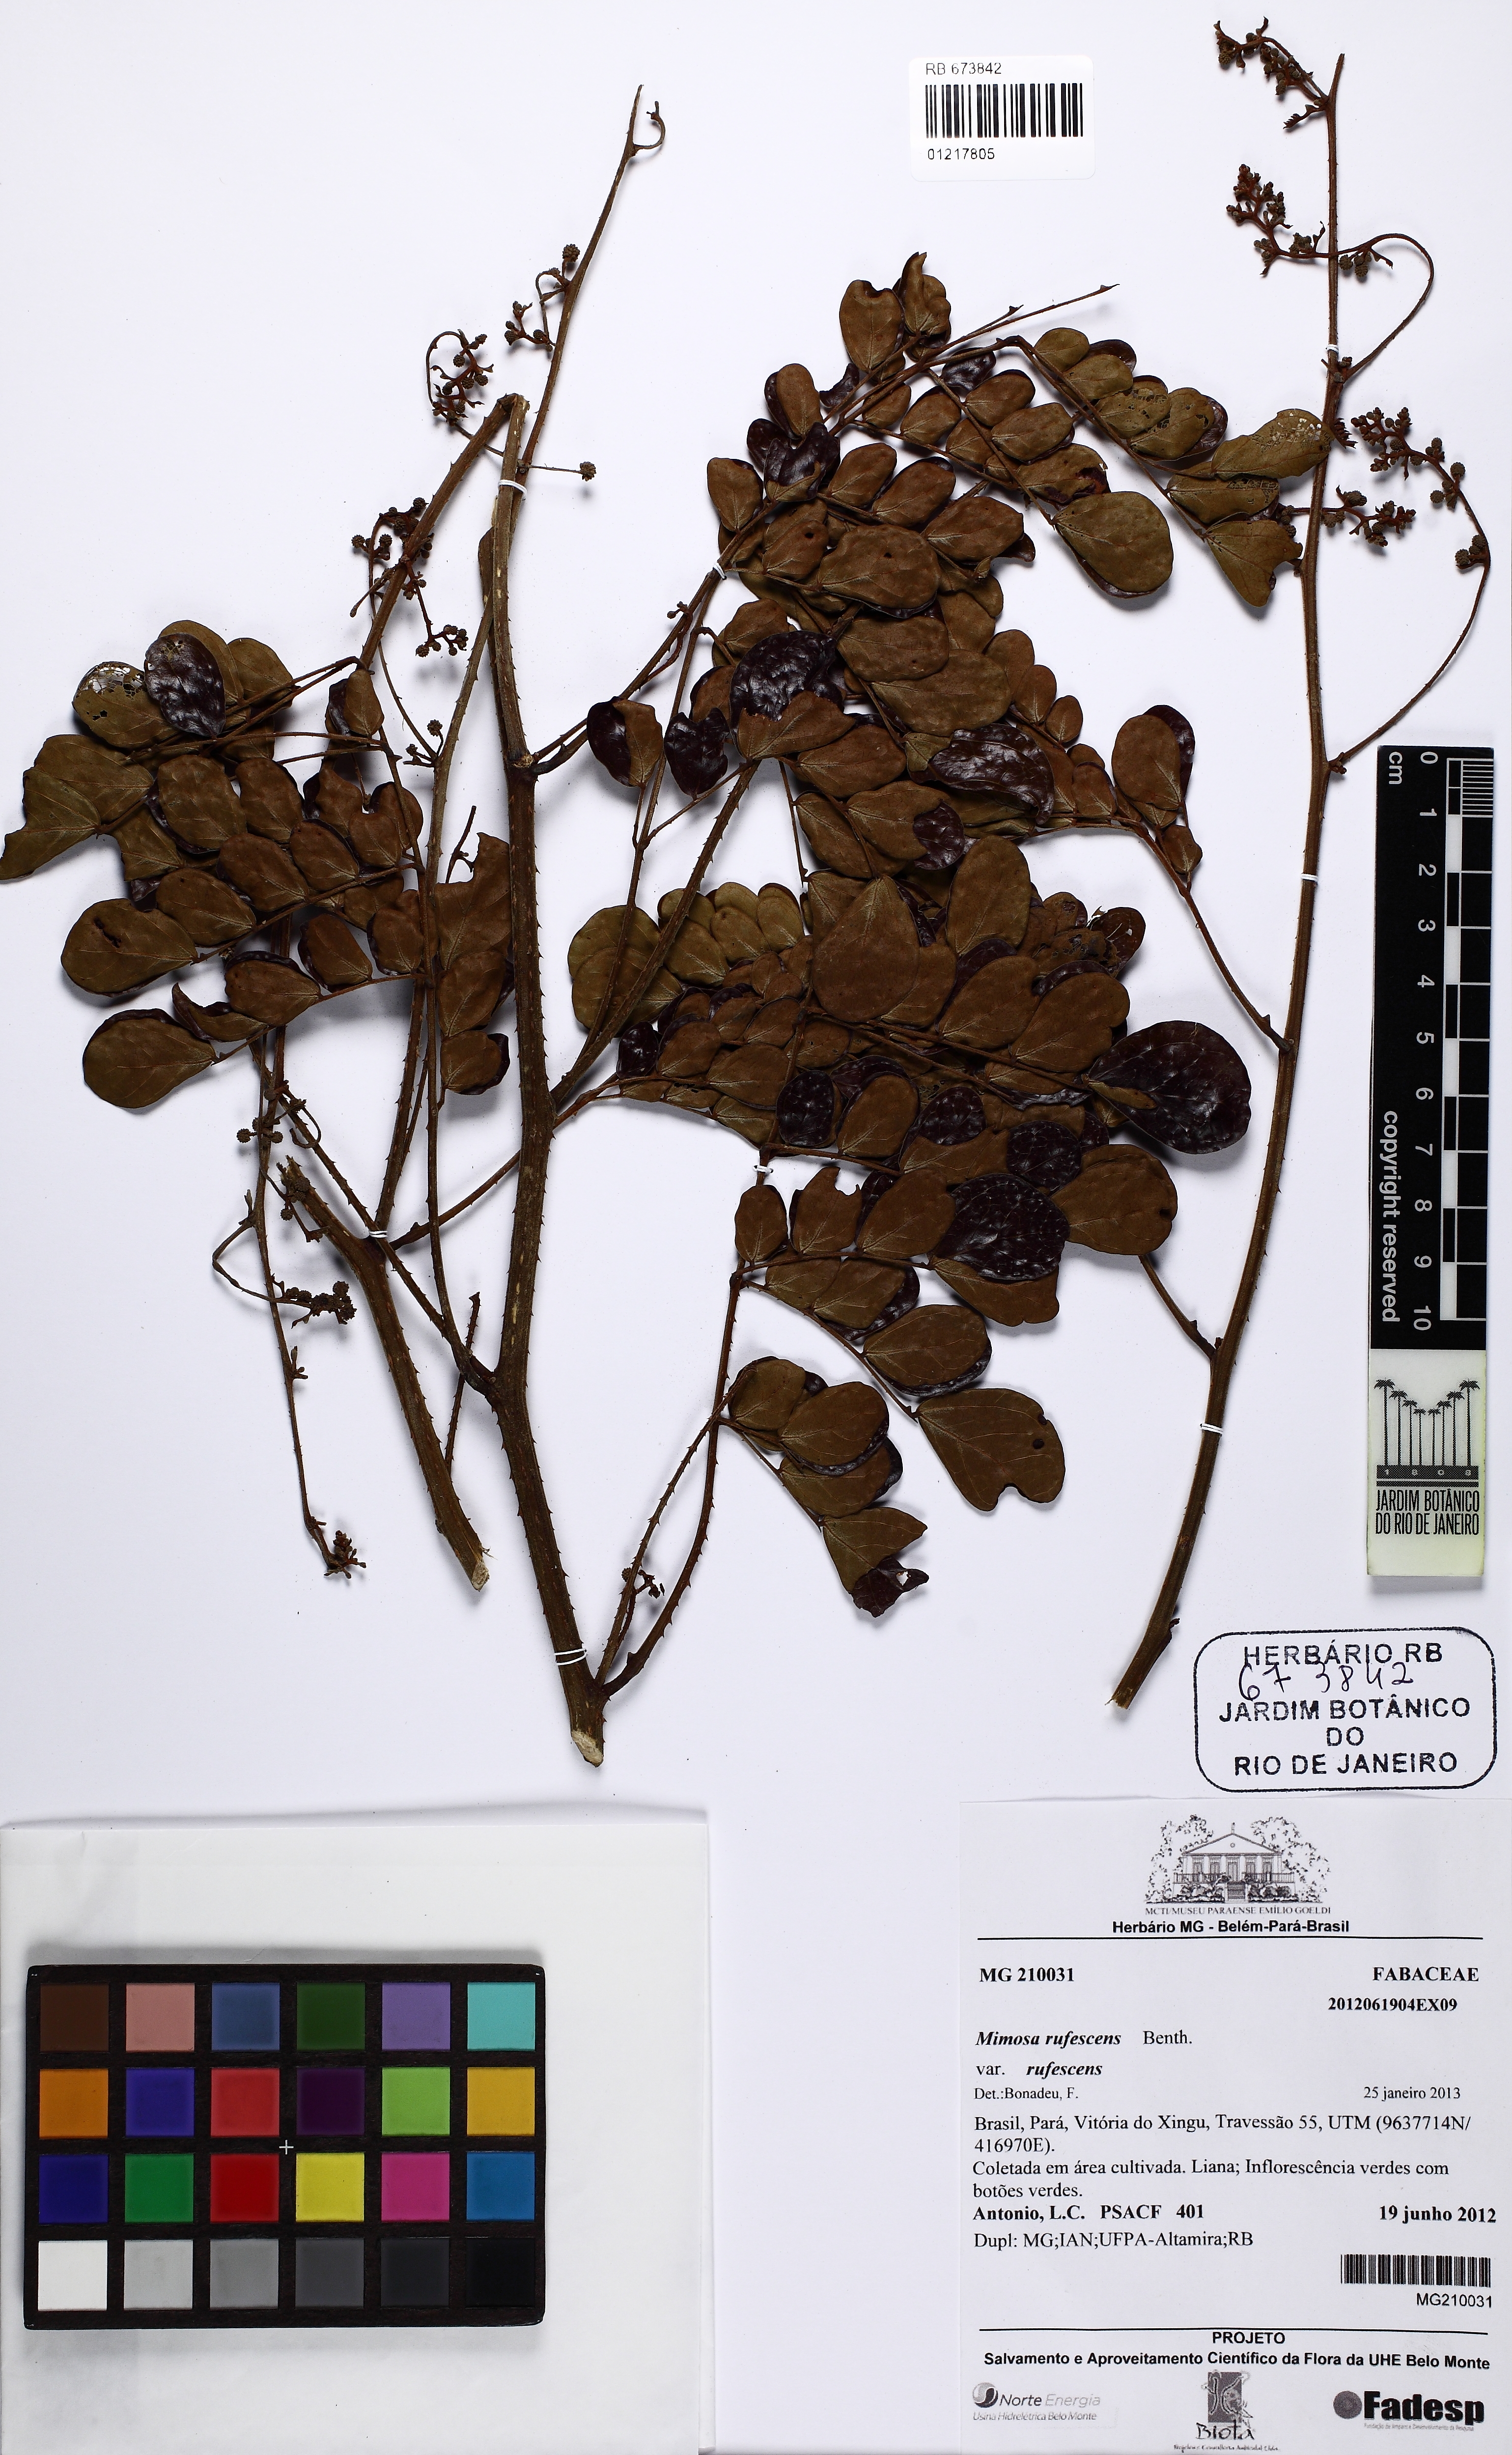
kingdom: Plantae
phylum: Tracheophyta
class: Magnoliopsida
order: Fabales
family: Fabaceae
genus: Mimosa
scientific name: Mimosa rufescens
